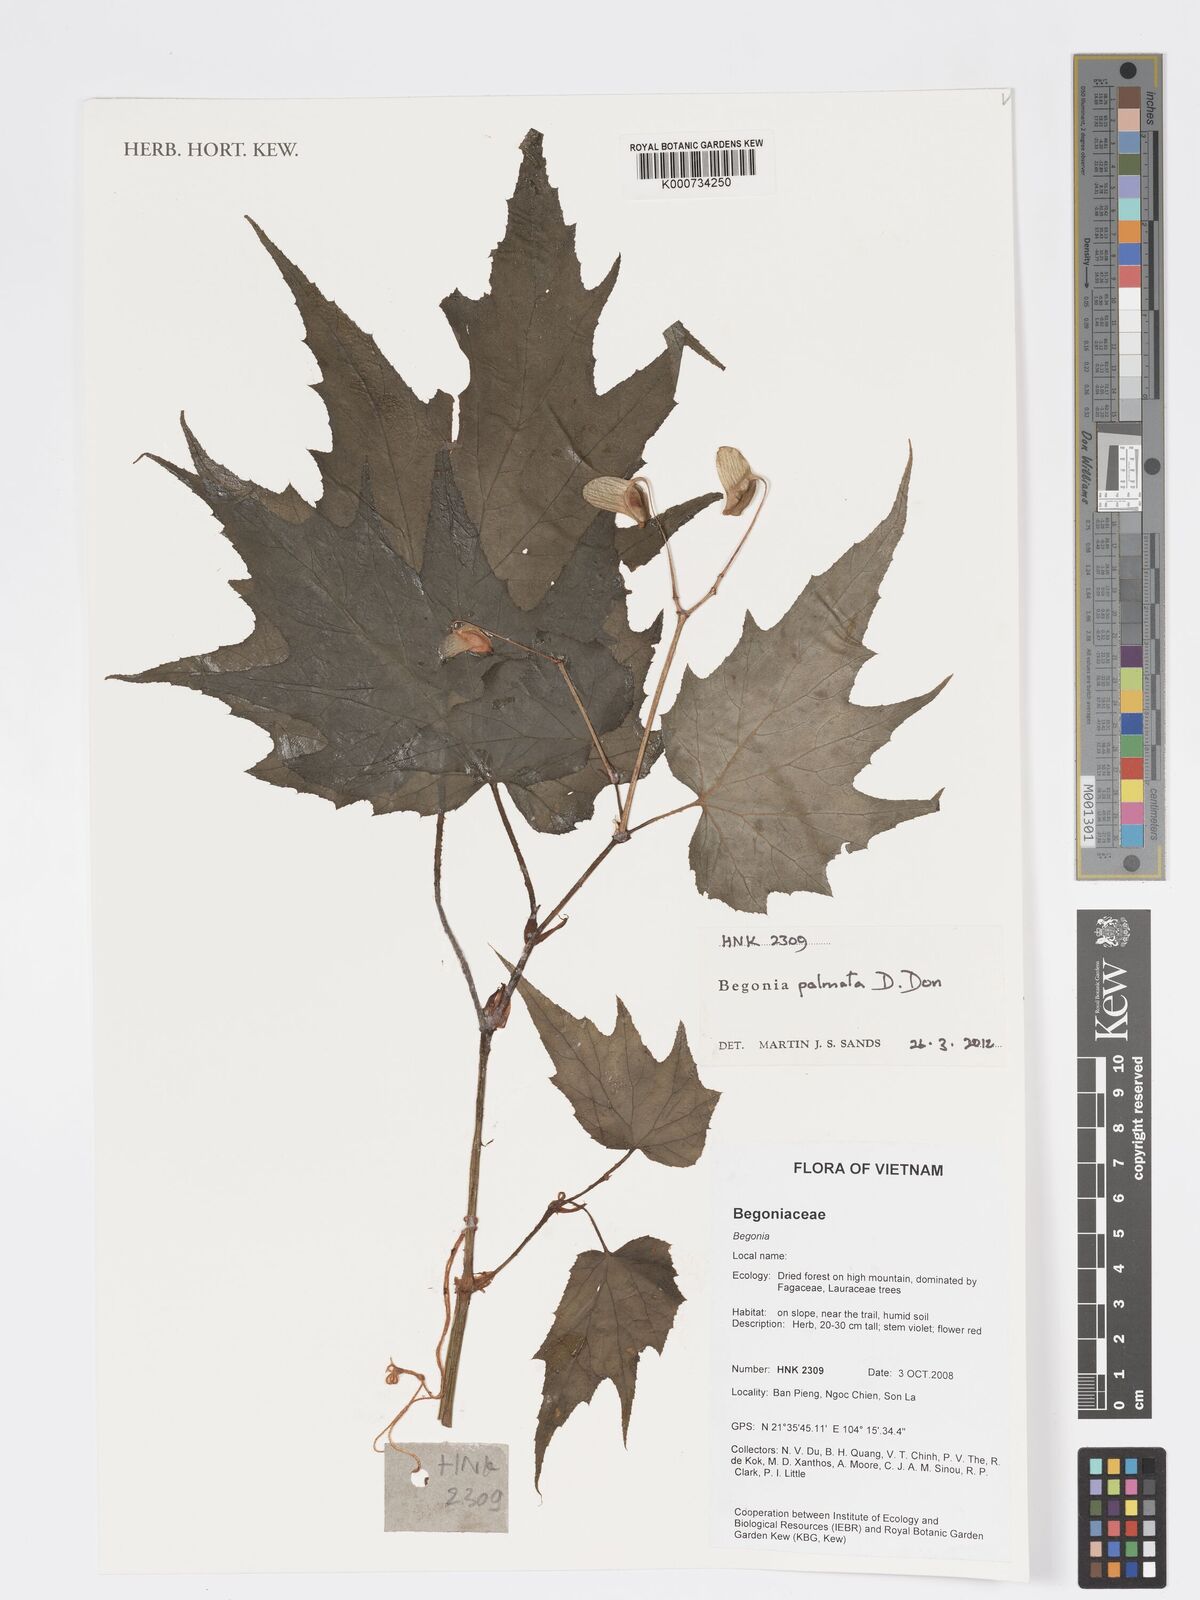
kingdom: Plantae
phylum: Tracheophyta
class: Magnoliopsida
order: Cucurbitales
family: Begoniaceae
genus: Begonia
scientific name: Begonia palmata
